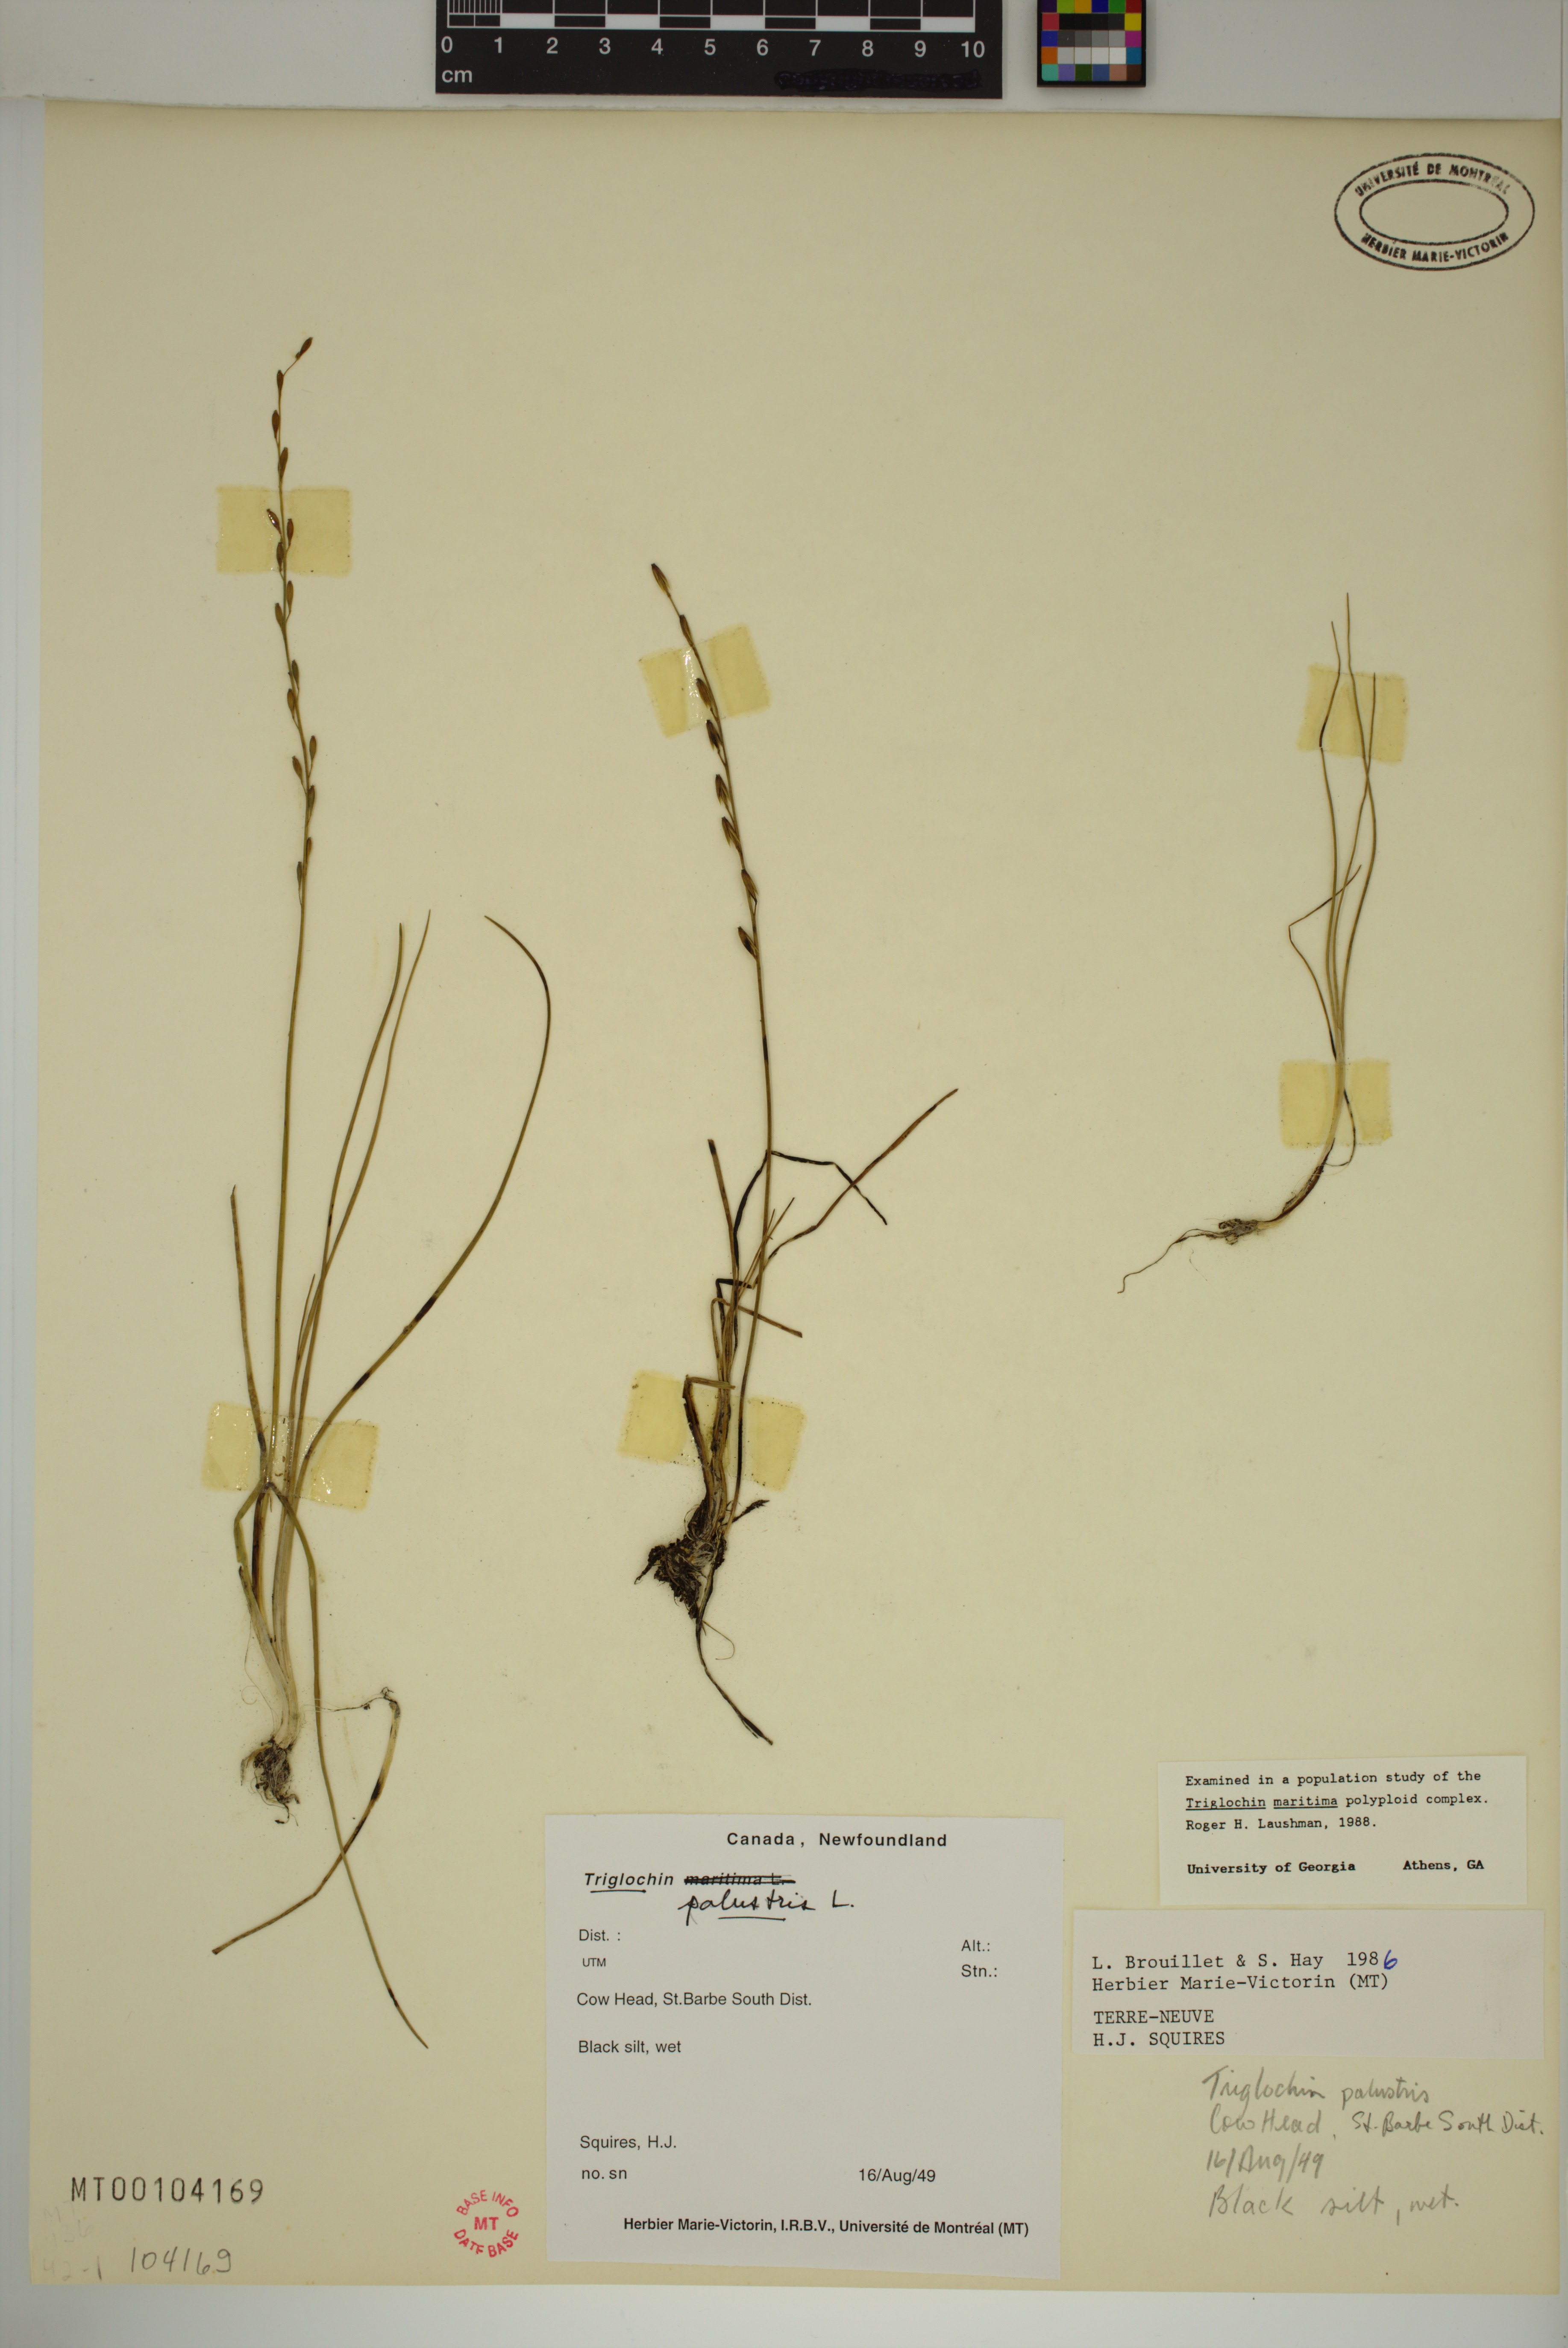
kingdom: Plantae
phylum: Tracheophyta
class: Liliopsida
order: Alismatales
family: Juncaginaceae
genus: Triglochin
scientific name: Triglochin palustris
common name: Marsh arrowgrass
